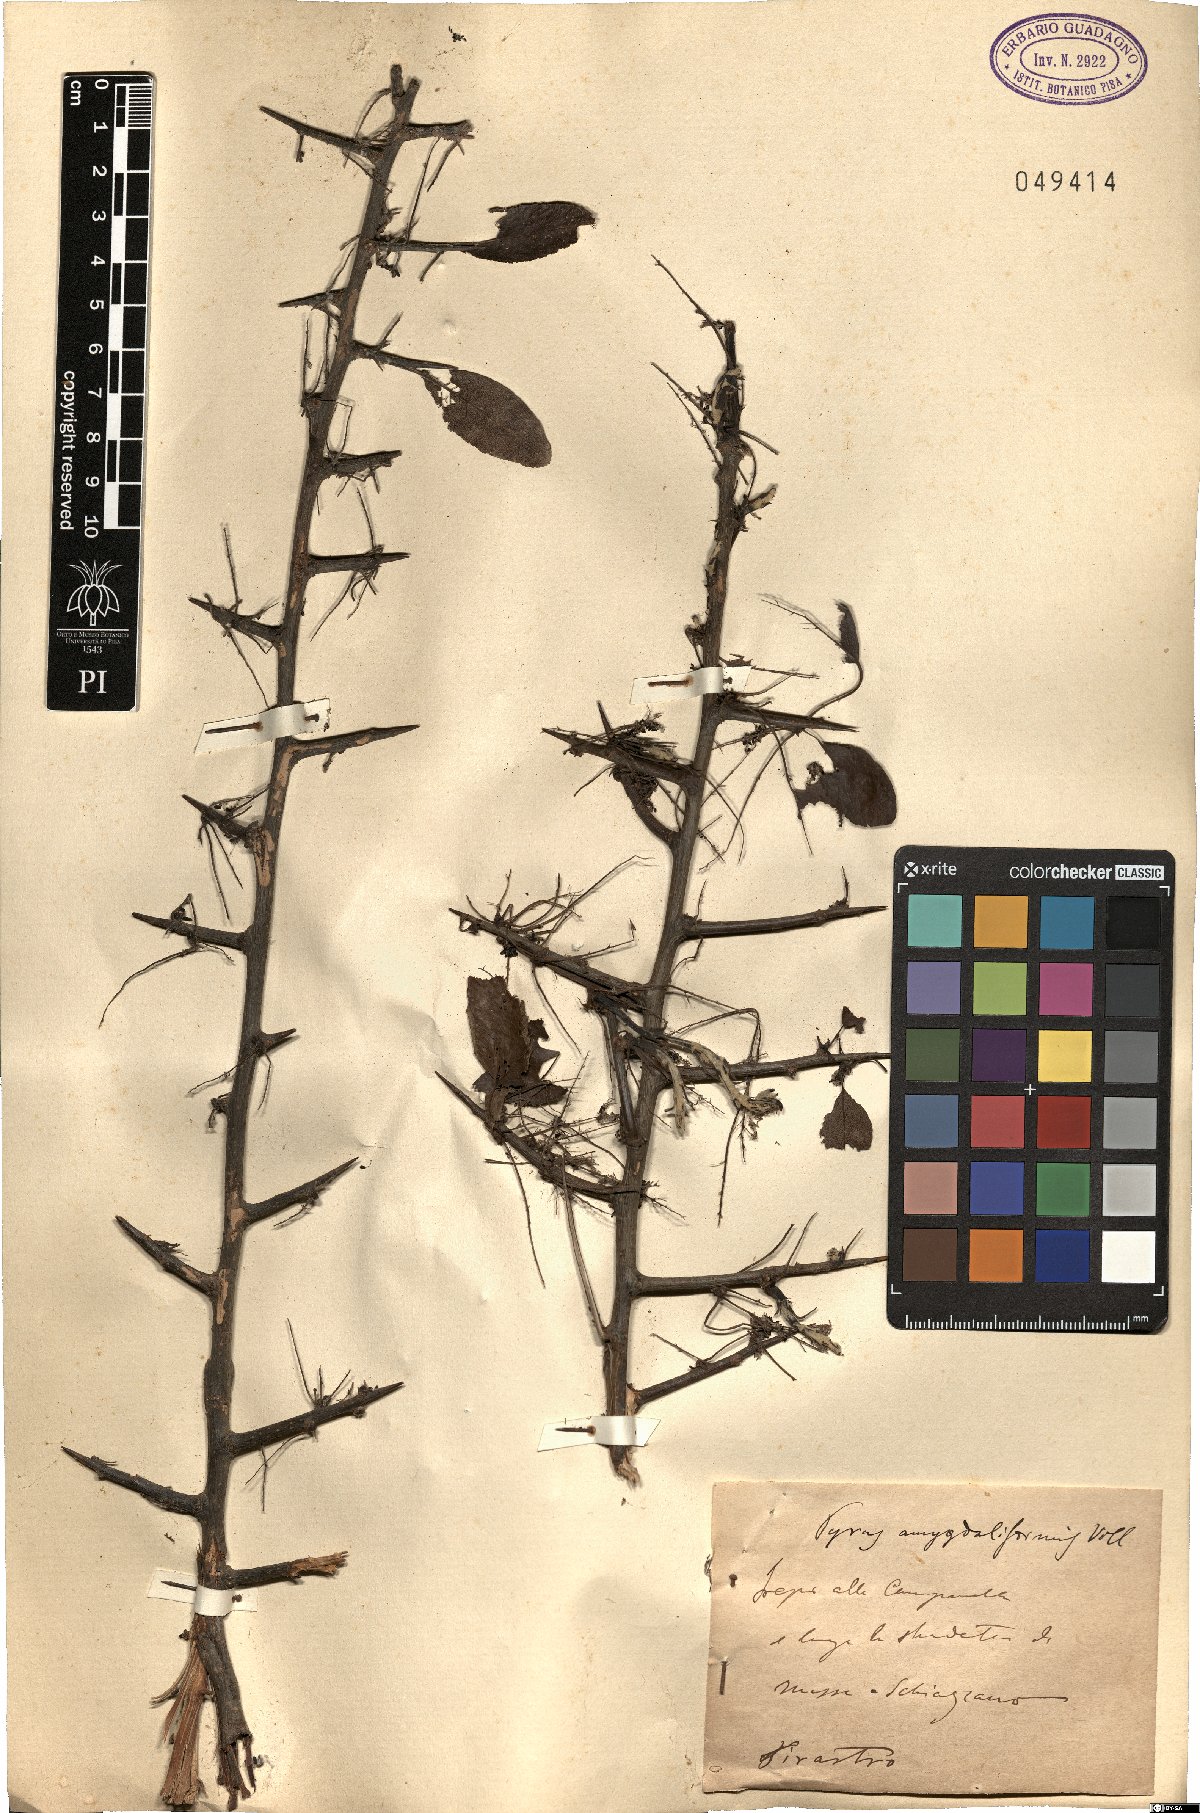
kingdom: Plantae
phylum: Tracheophyta
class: Magnoliopsida
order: Rosales
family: Rosaceae
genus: Pyrus
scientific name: Pyrus spinosa
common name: Almond-leaf pear
